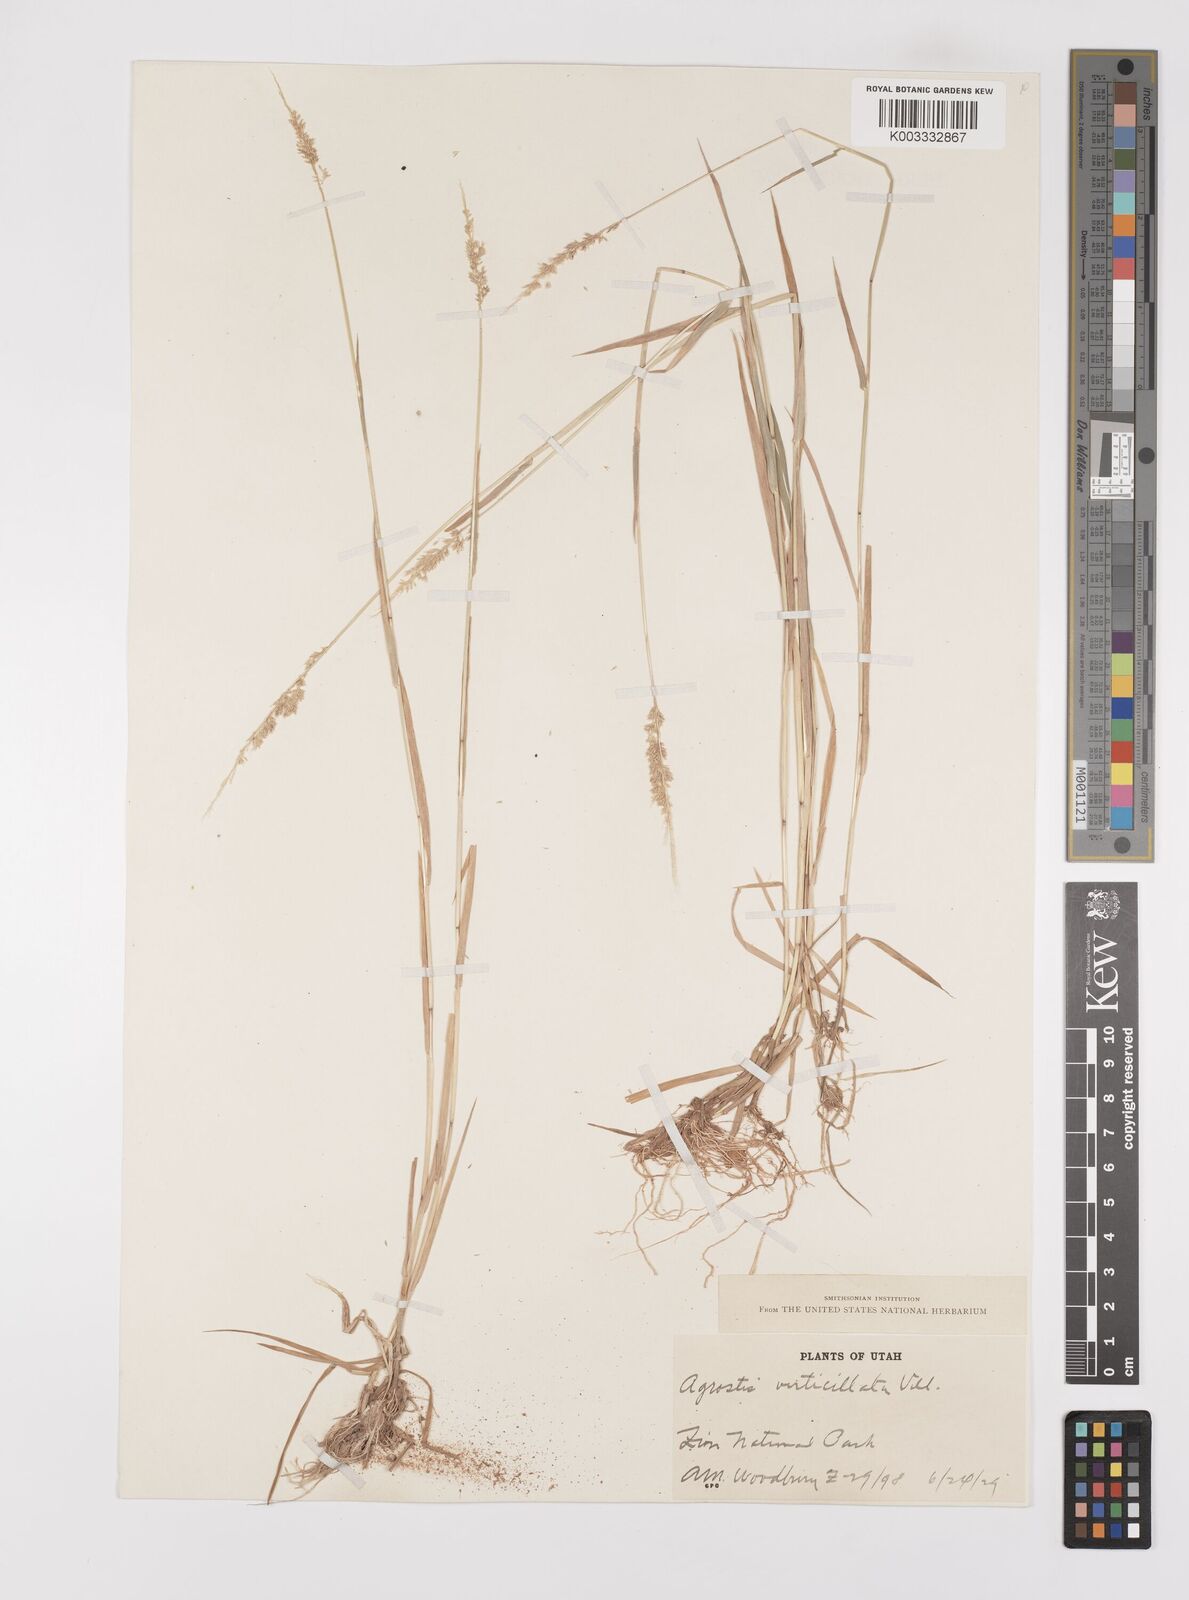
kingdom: Plantae
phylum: Tracheophyta
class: Liliopsida
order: Poales
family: Poaceae
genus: Polypogon
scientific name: Polypogon viridis
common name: Water bent
